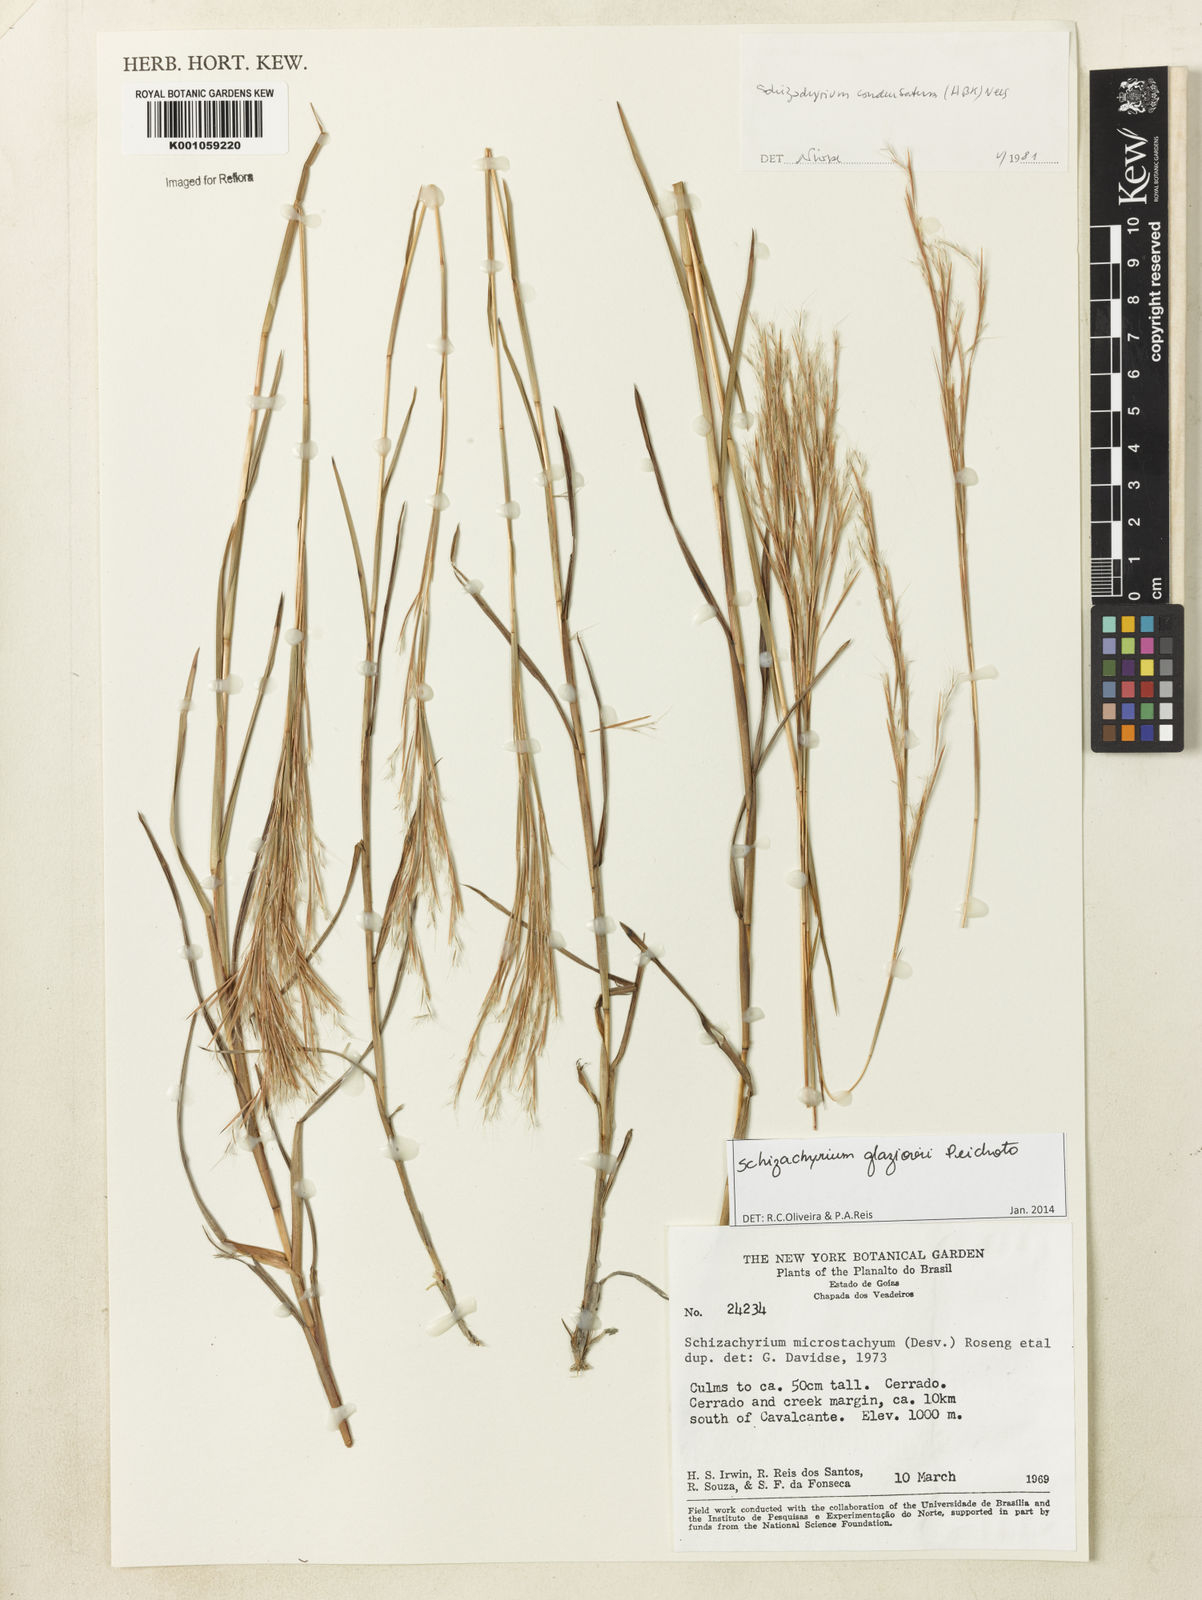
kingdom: Plantae
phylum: Tracheophyta
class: Liliopsida
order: Poales
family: Poaceae
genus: Schizachyrium
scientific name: Schizachyrium glaziovii
